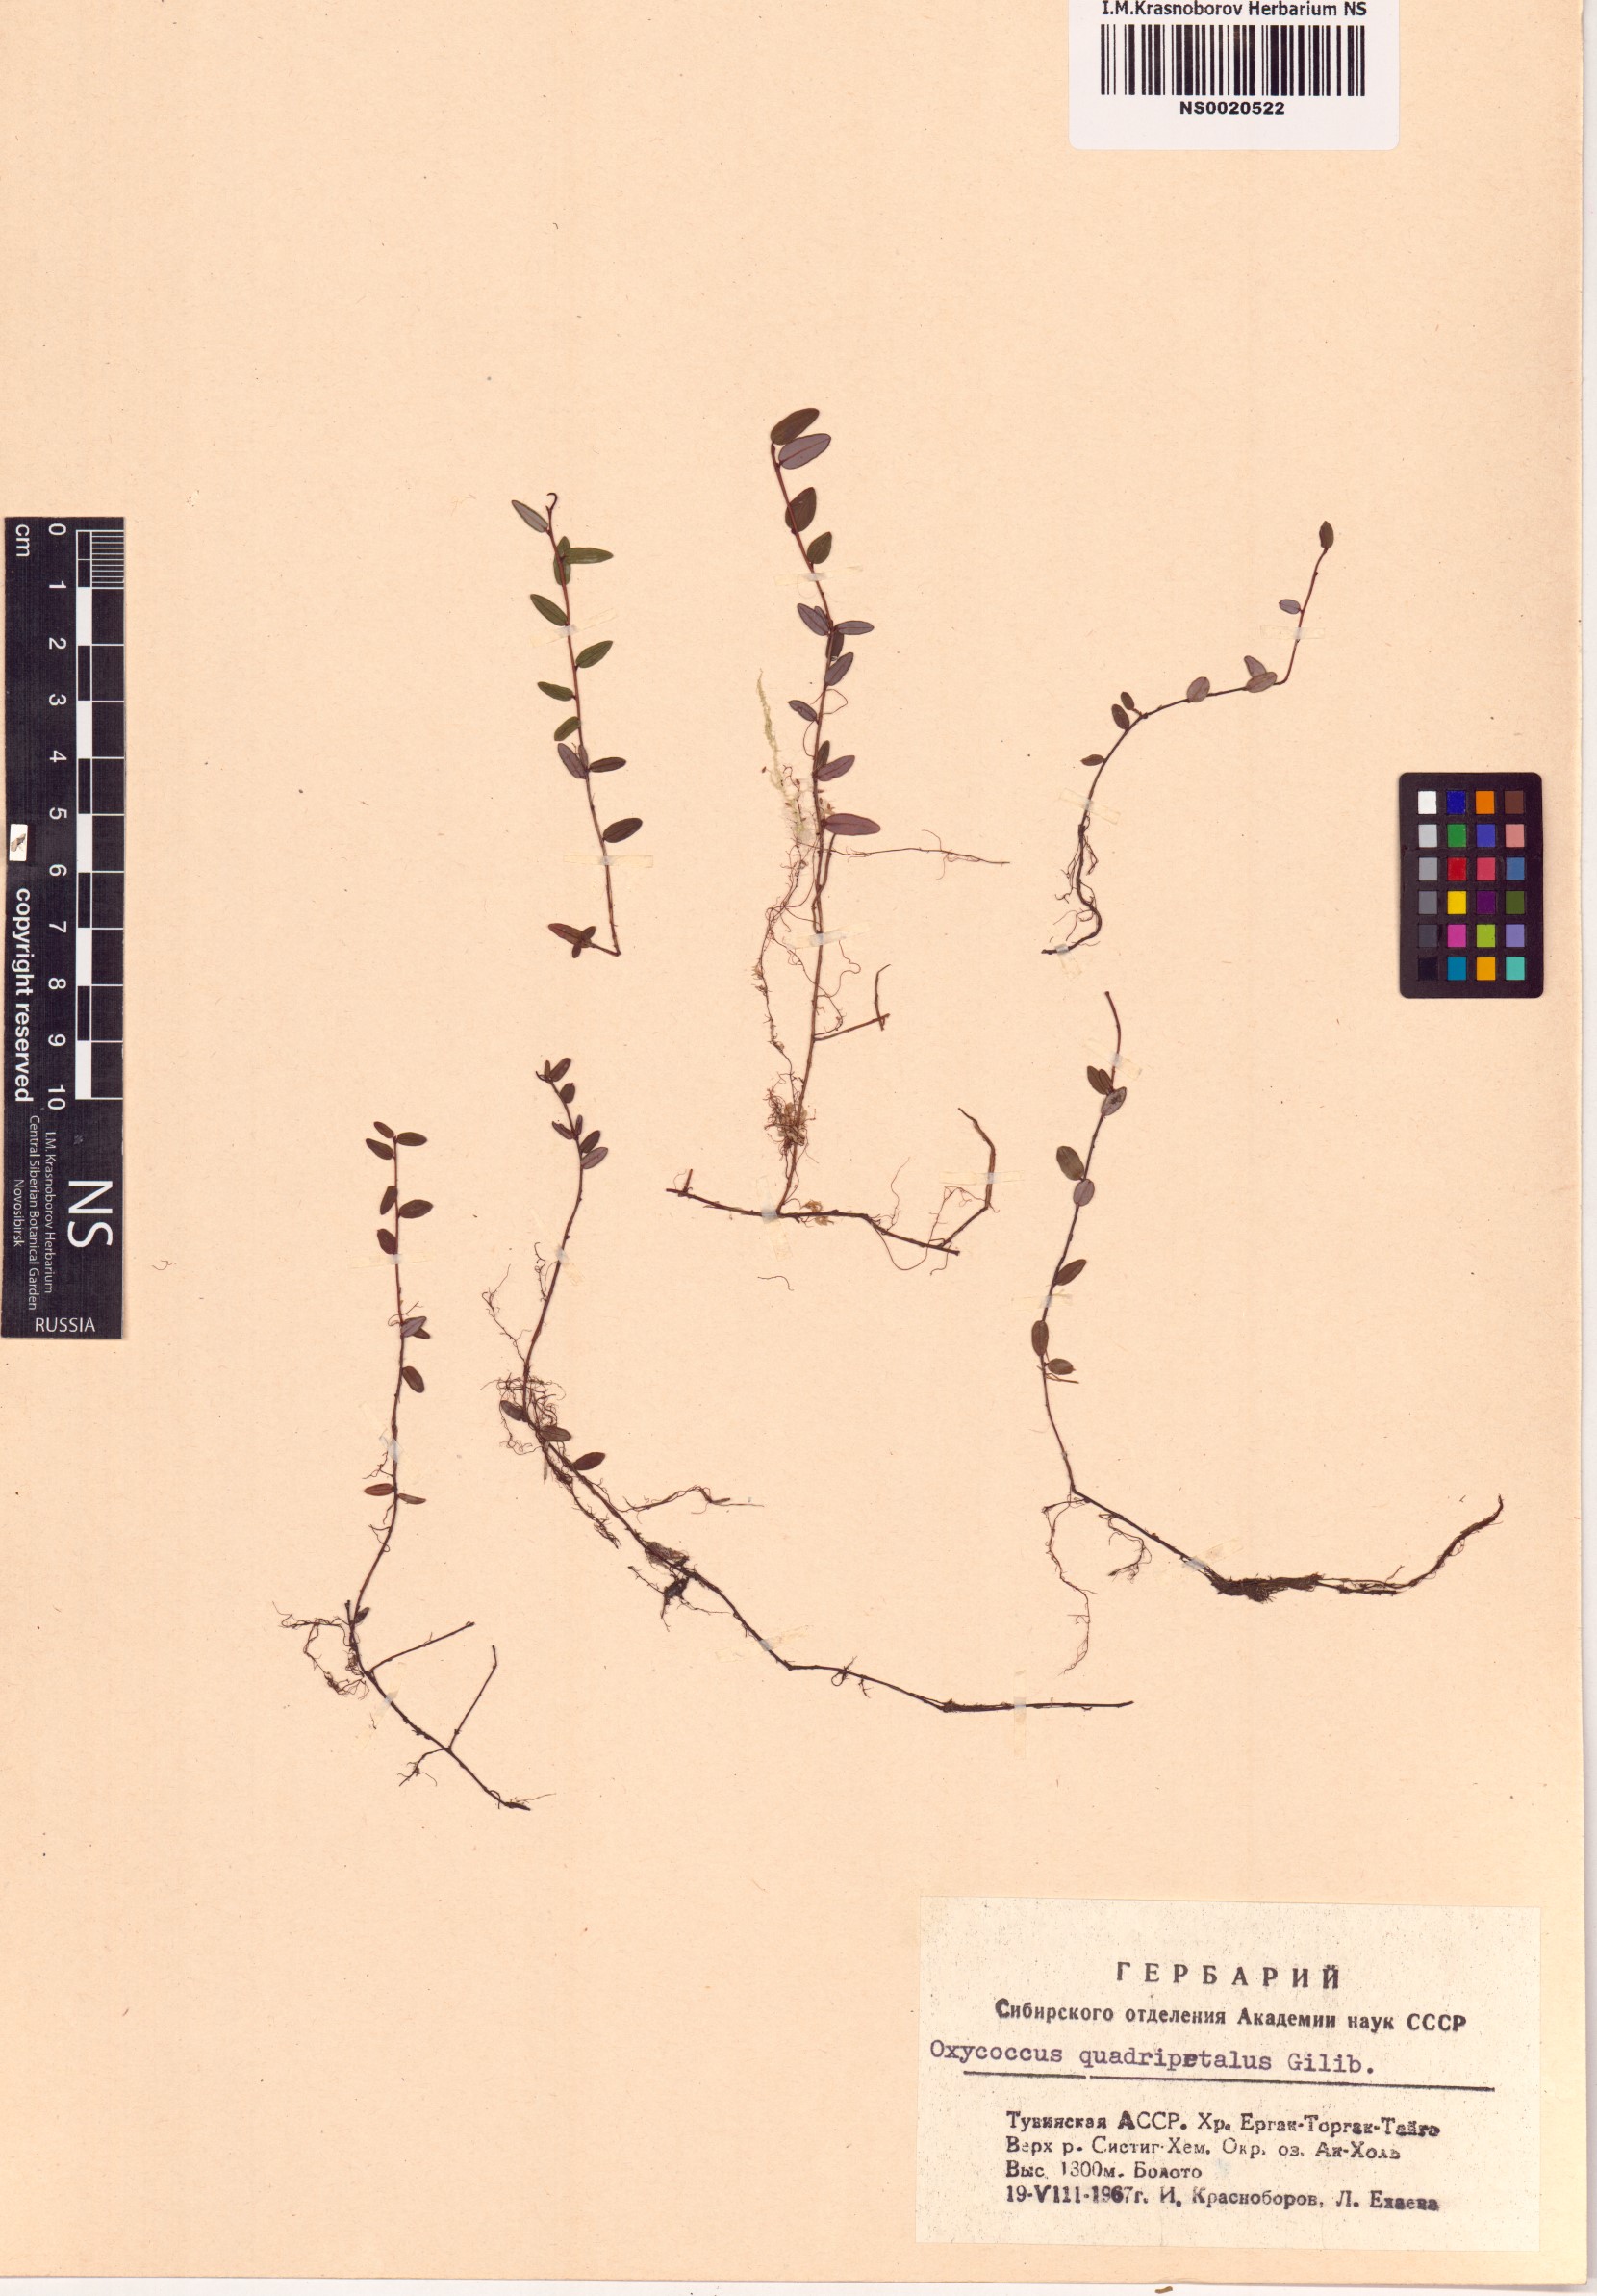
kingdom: Plantae
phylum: Tracheophyta
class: Magnoliopsida
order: Ericales
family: Ericaceae
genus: Vaccinium
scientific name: Vaccinium oxycoccos
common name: Cranberry
